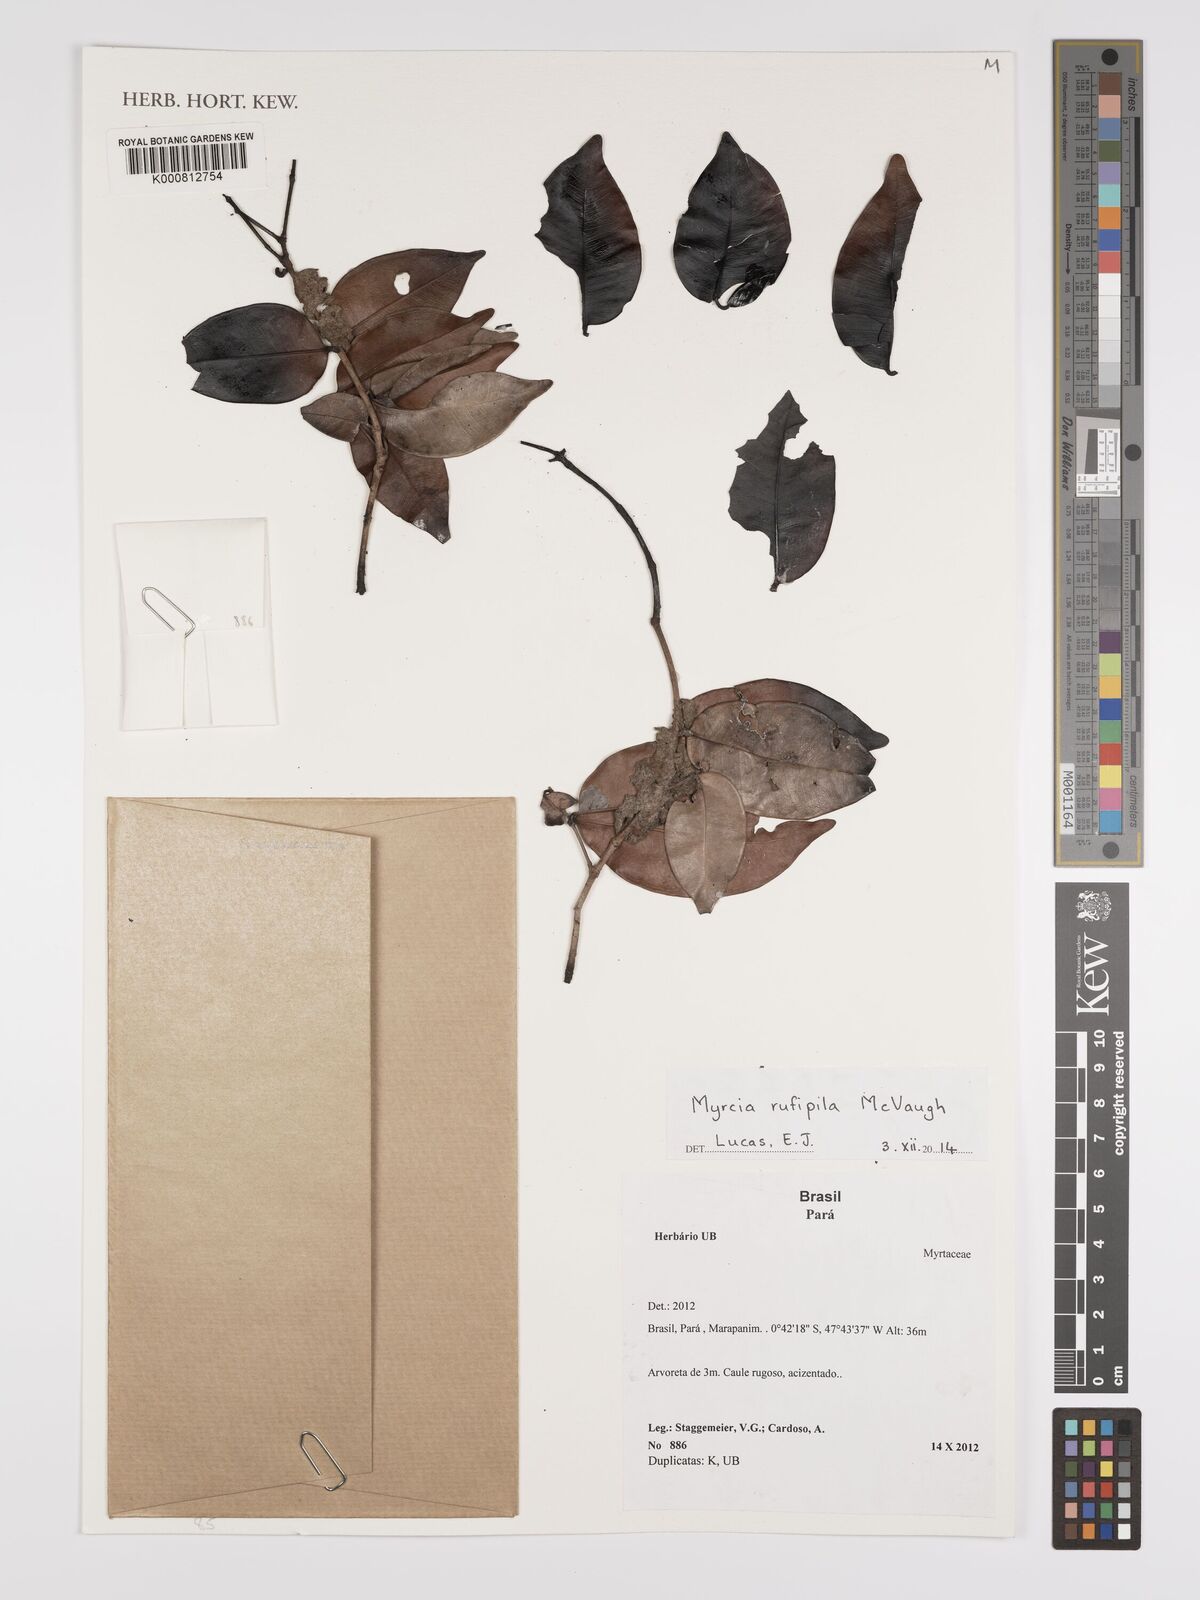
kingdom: Plantae
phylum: Tracheophyta
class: Magnoliopsida
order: Myrtales
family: Myrtaceae
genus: Myrcia
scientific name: Myrcia rufipila
